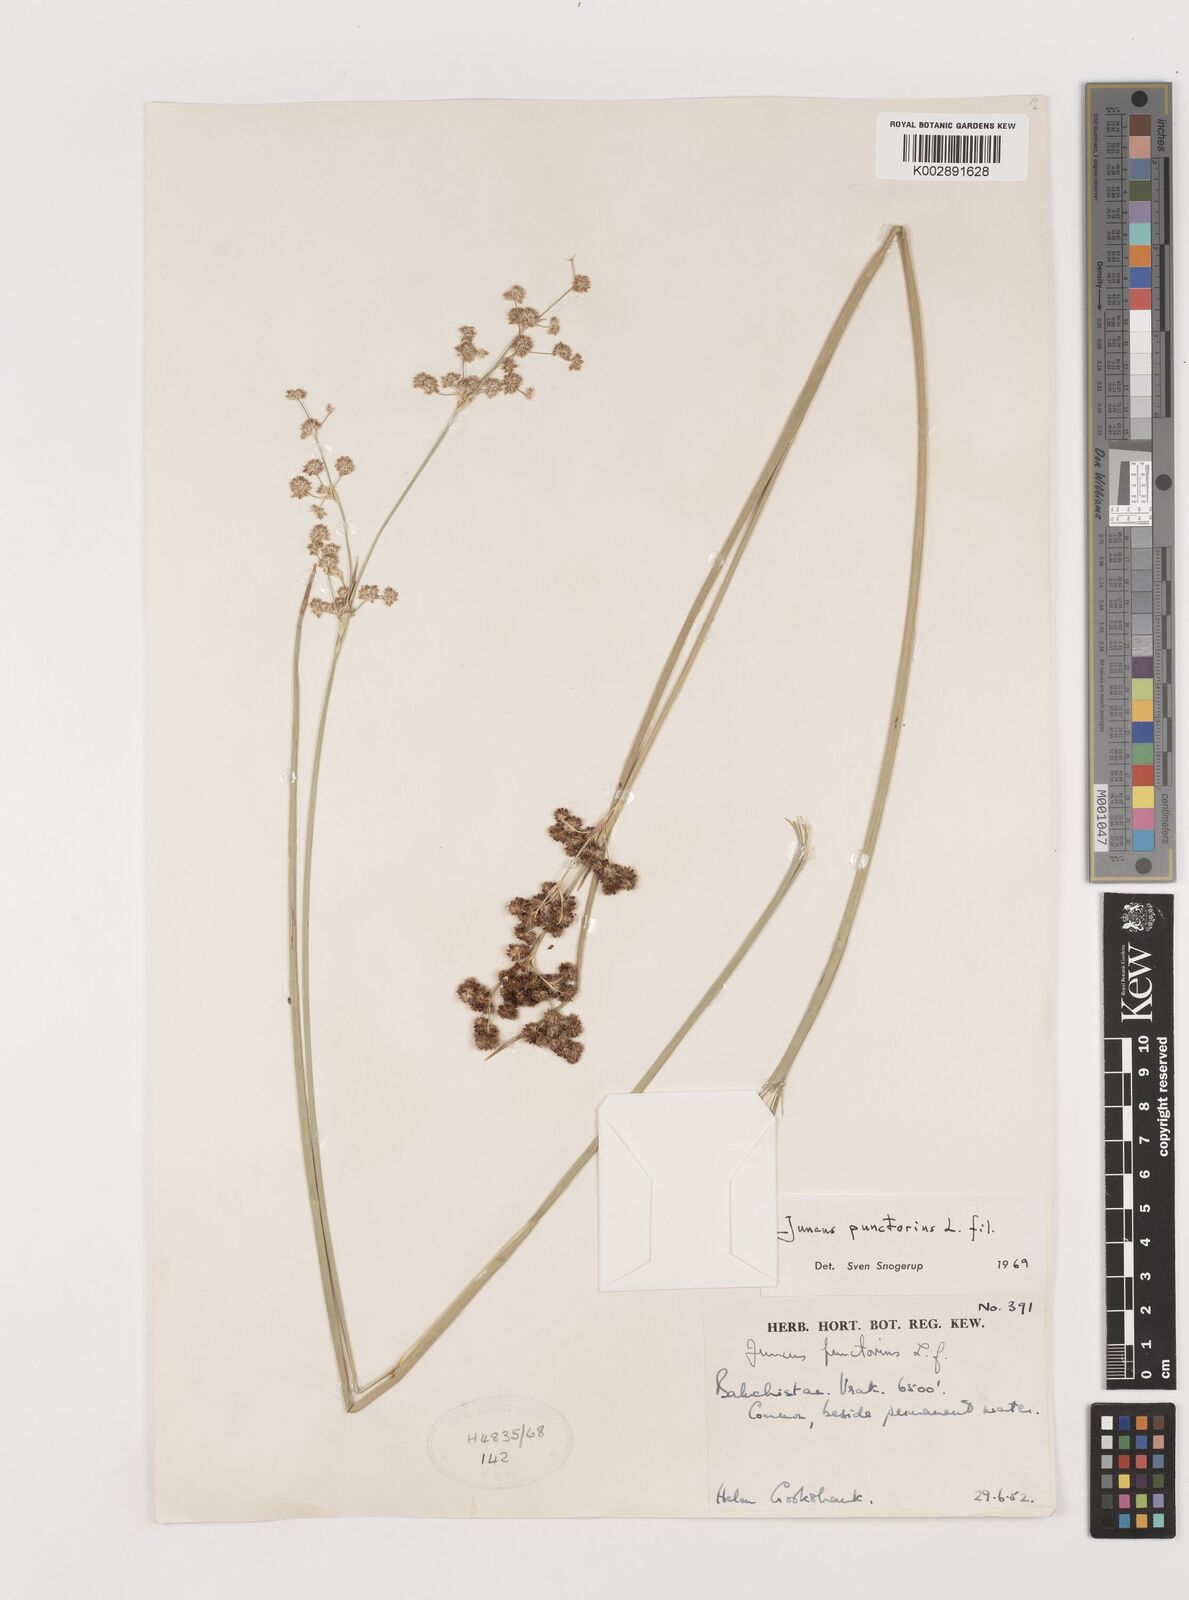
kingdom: Plantae
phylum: Tracheophyta
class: Liliopsida
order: Poales
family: Juncaceae
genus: Juncus
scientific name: Juncus punctorius
